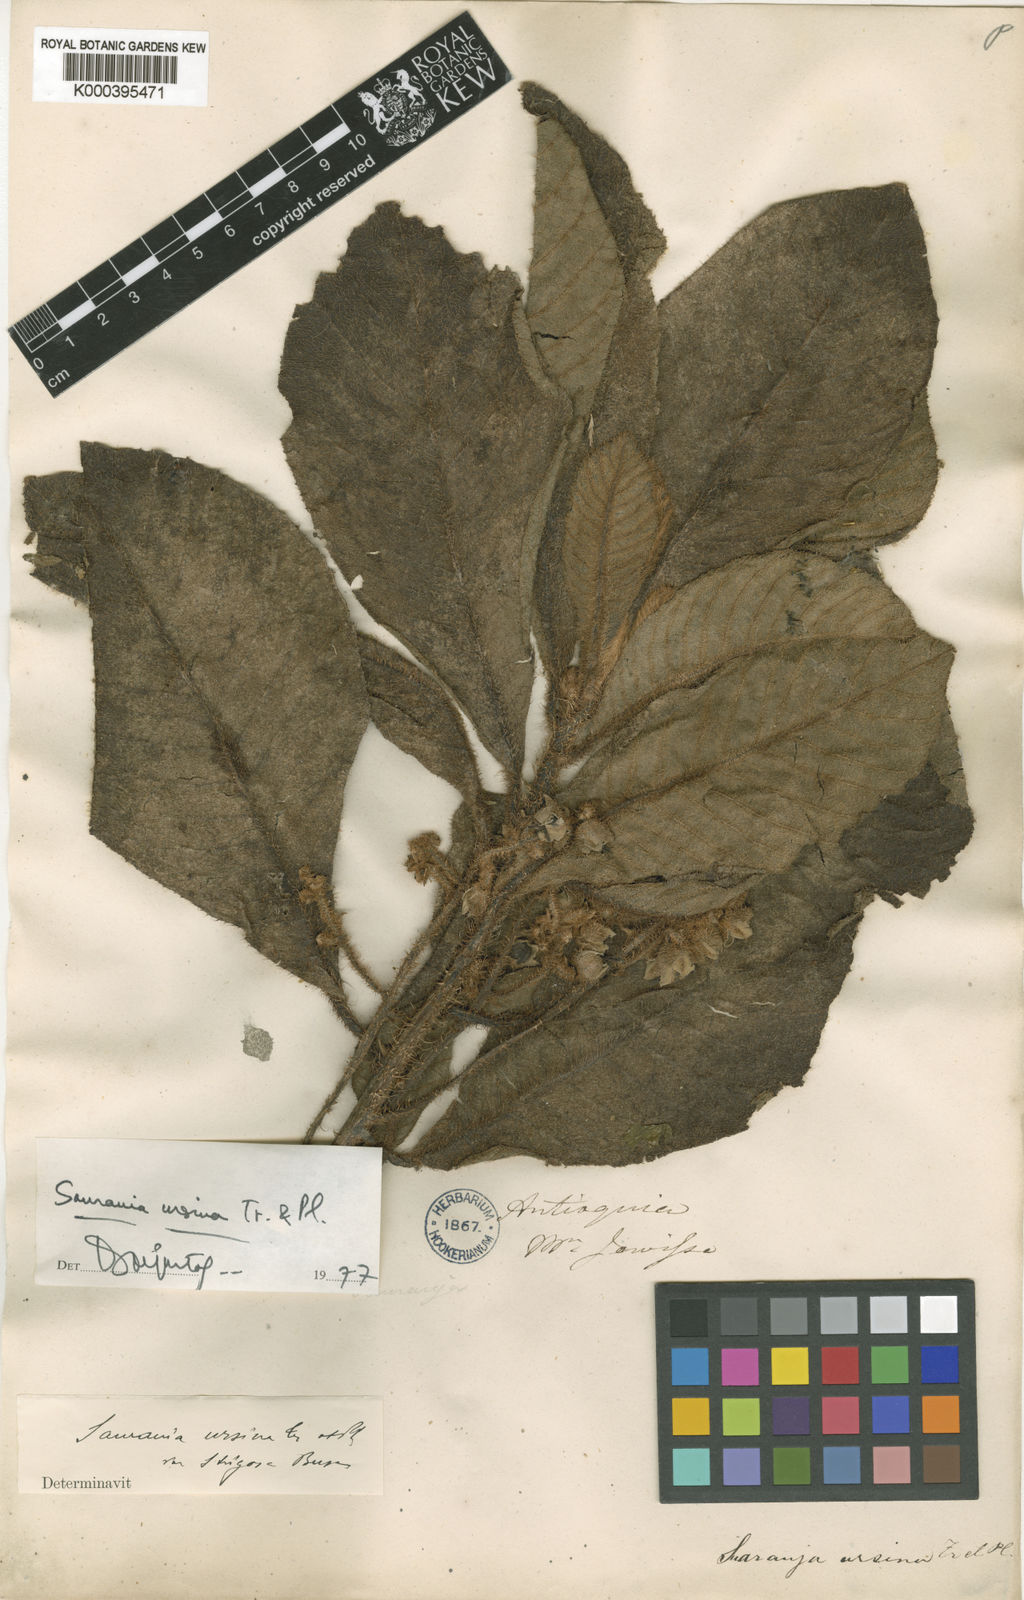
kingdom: Plantae
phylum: Tracheophyta
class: Magnoliopsida
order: Ericales
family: Actinidiaceae
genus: Saurauia
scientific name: Saurauia ursina
